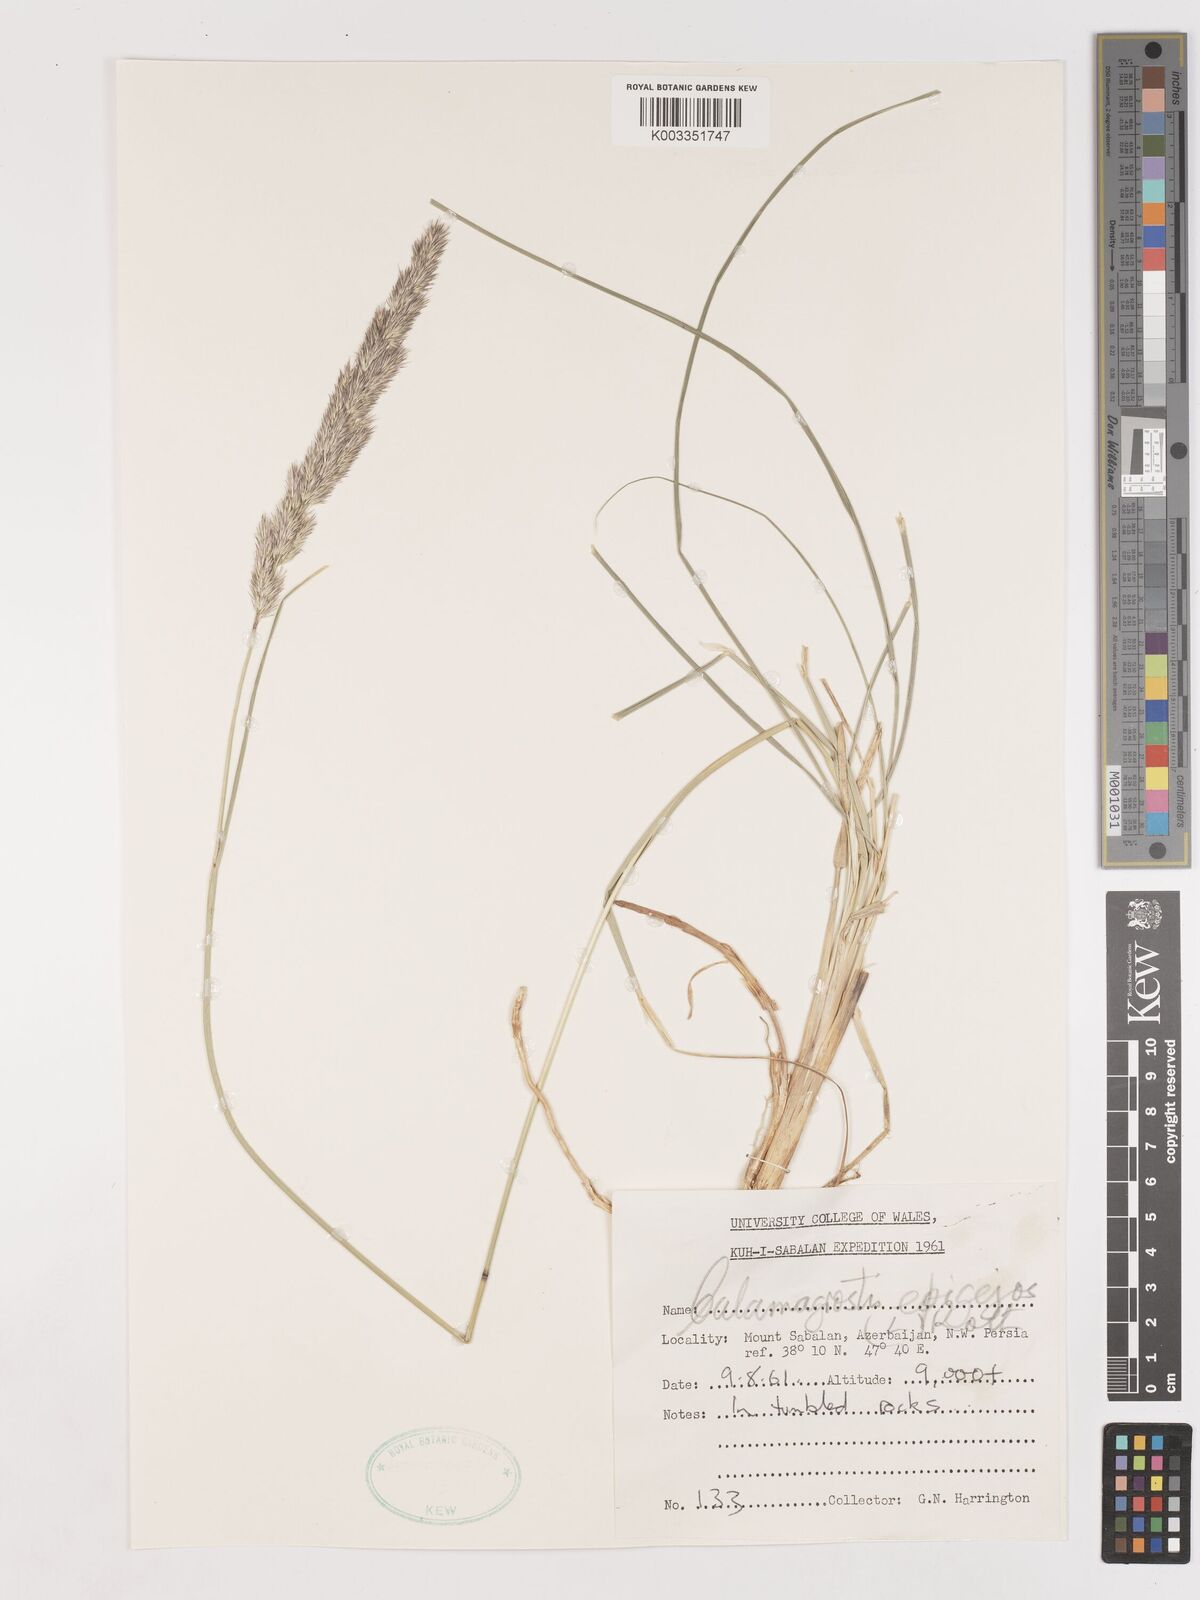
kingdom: Plantae
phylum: Tracheophyta
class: Liliopsida
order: Poales
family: Poaceae
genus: Calamagrostis
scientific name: Calamagrostis
